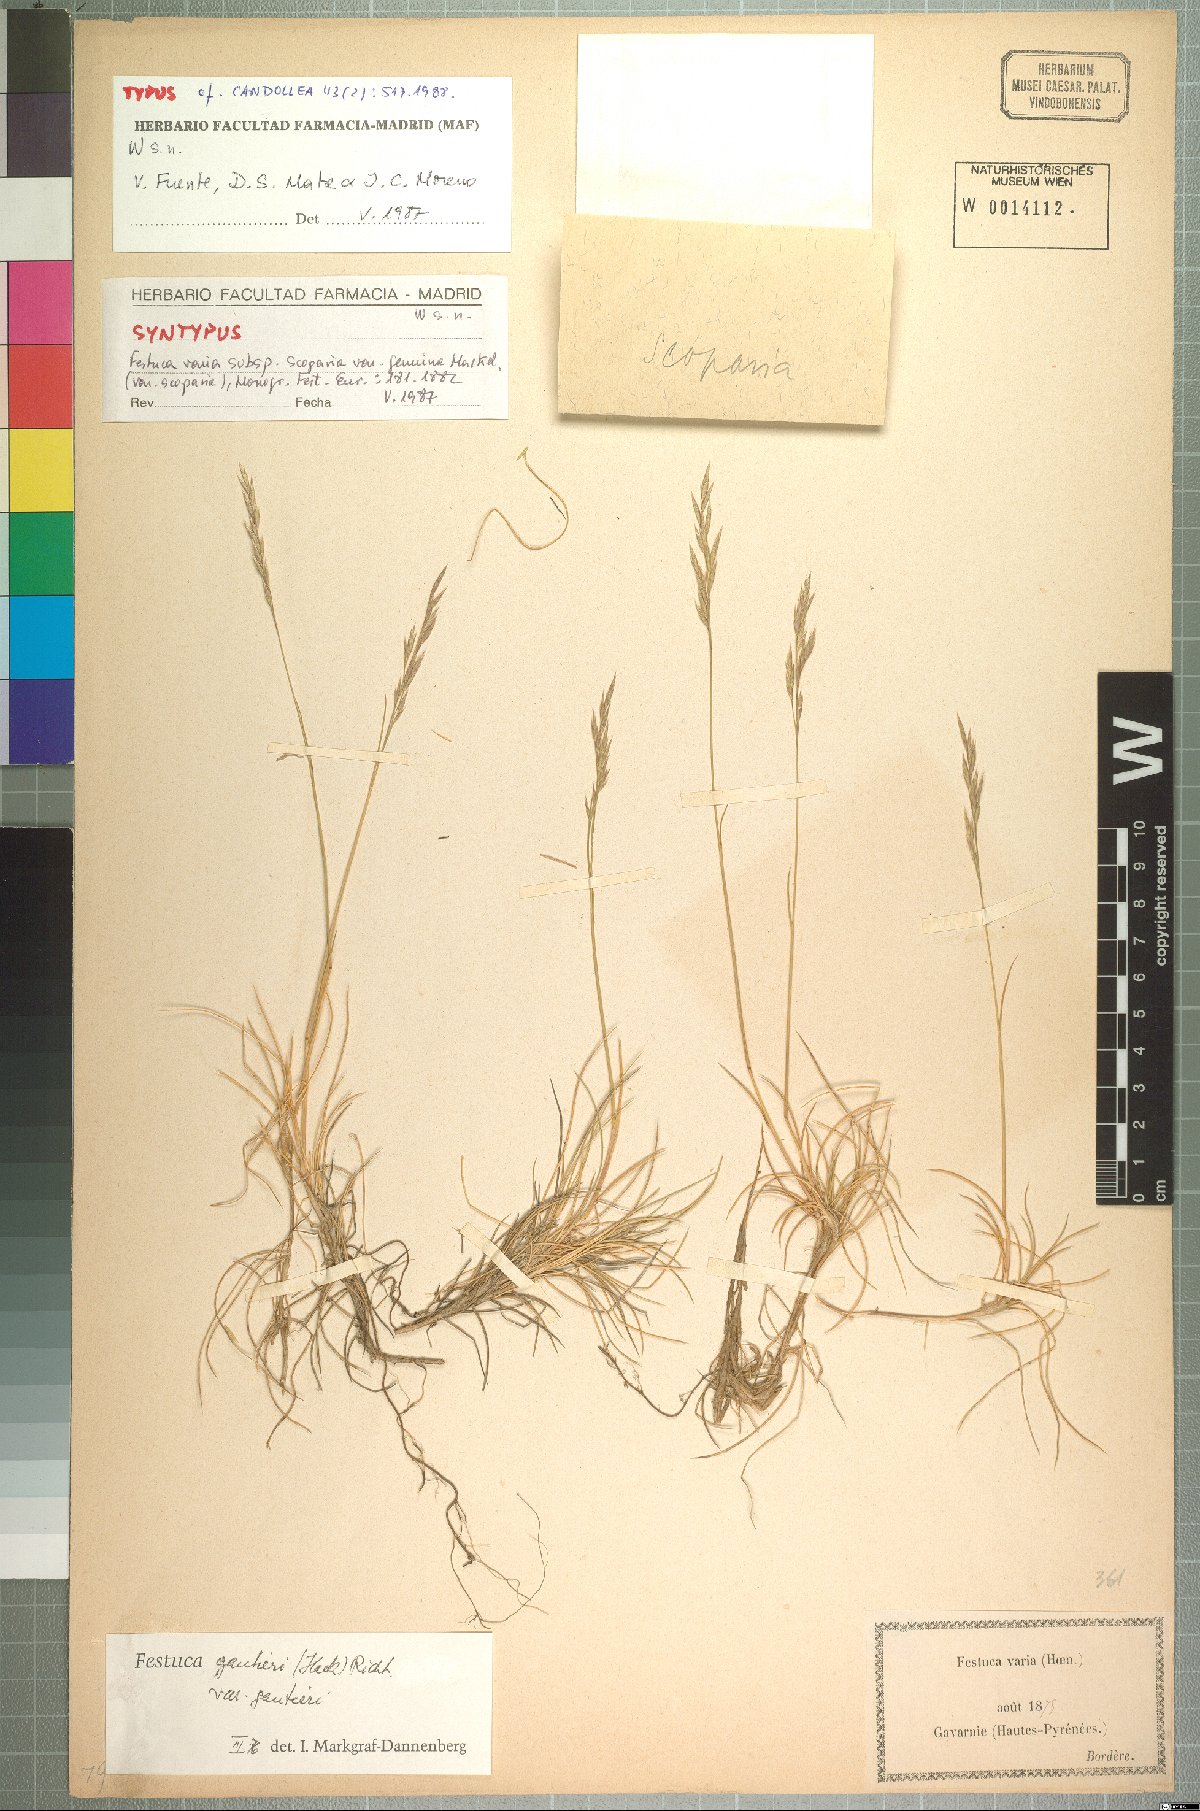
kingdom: Plantae
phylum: Tracheophyta
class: Liliopsida
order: Poales
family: Poaceae
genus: Festuca
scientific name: Festuca gautieri
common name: Spiky fescue
